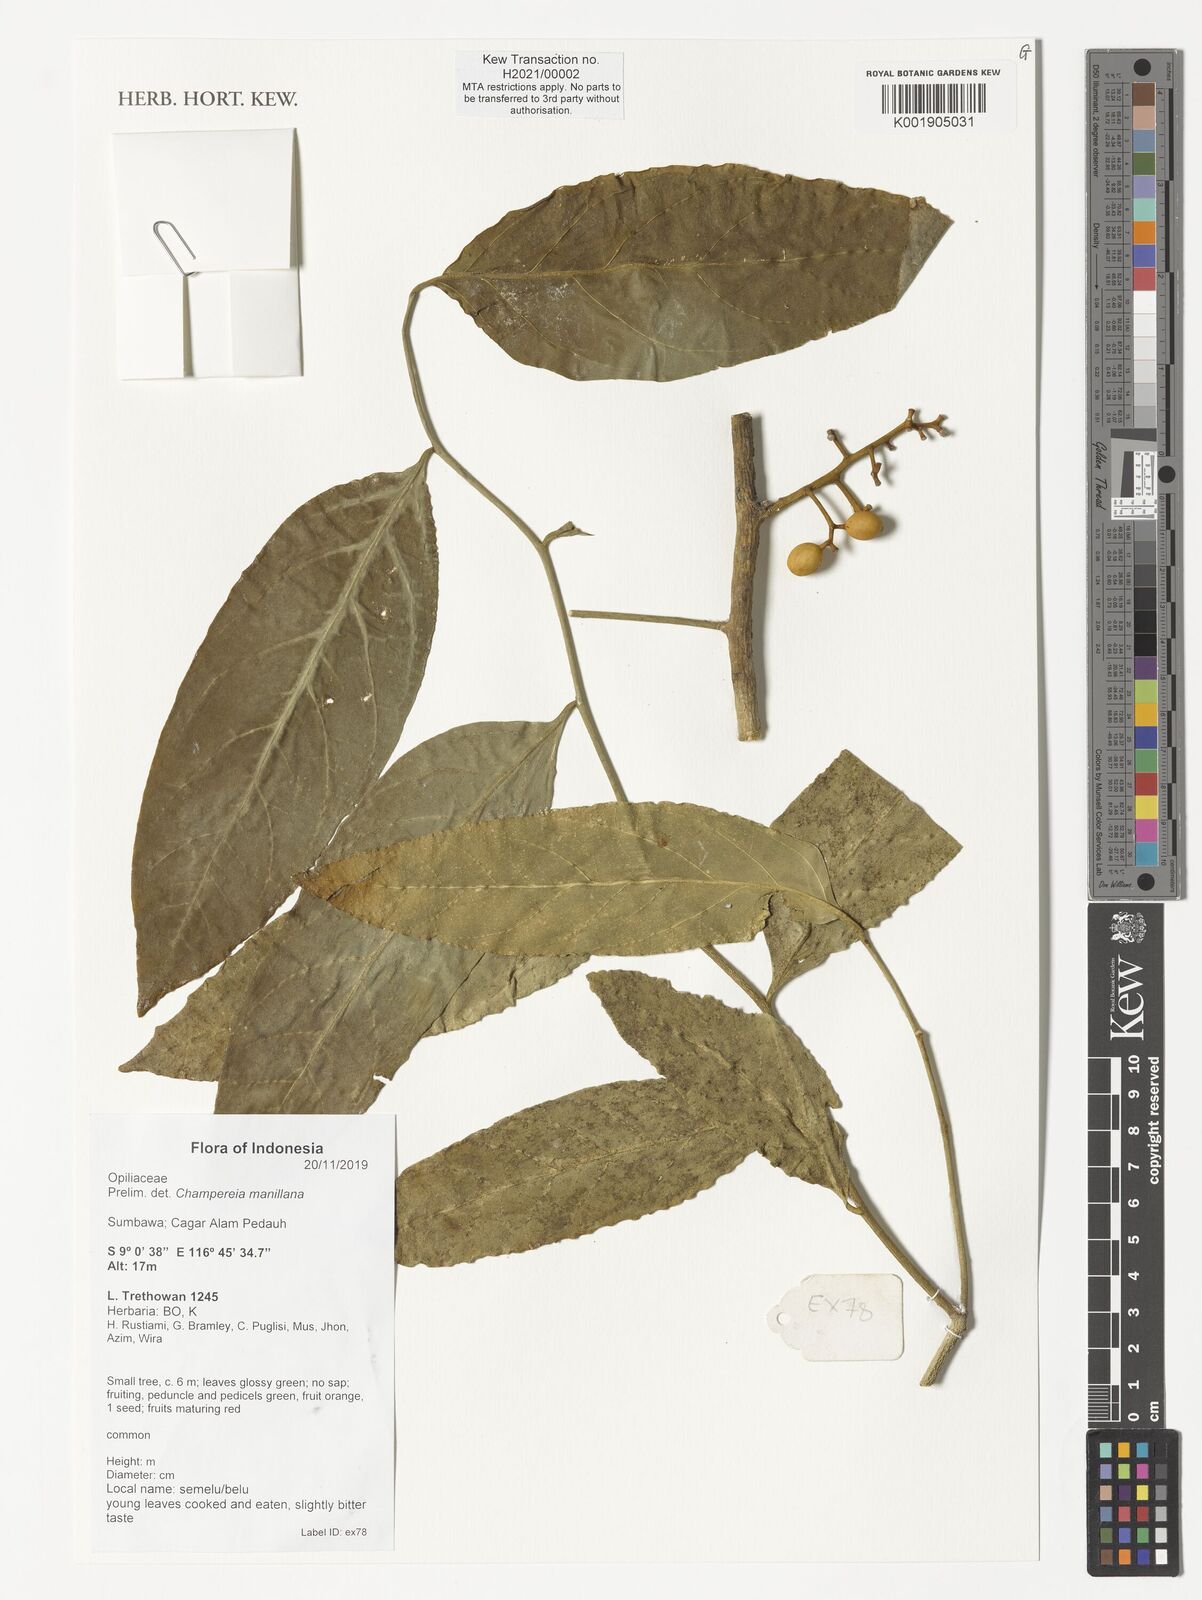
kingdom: Plantae
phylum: Tracheophyta
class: Magnoliopsida
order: Santalales
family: Opiliaceae
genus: Champereia
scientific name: Champereia manillana
